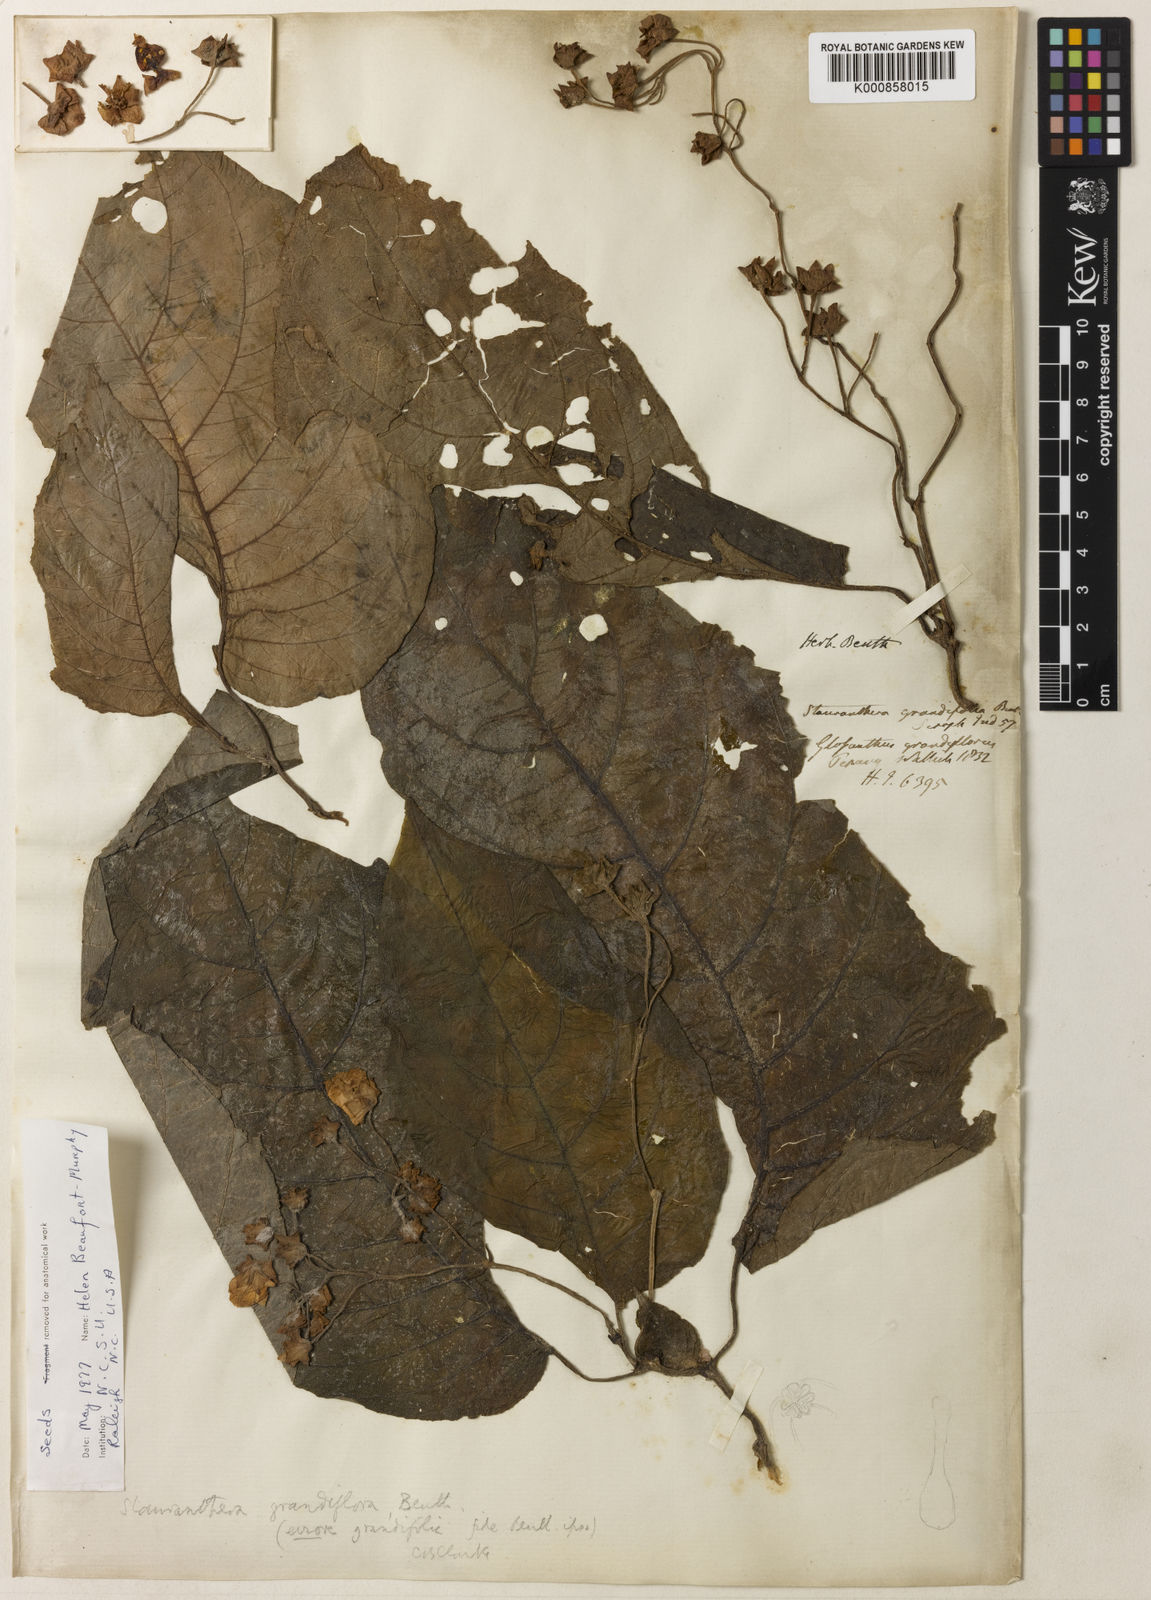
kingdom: Plantae
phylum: Tracheophyta
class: Magnoliopsida
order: Lamiales
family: Gesneriaceae
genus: Stauranthera
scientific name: Stauranthera
